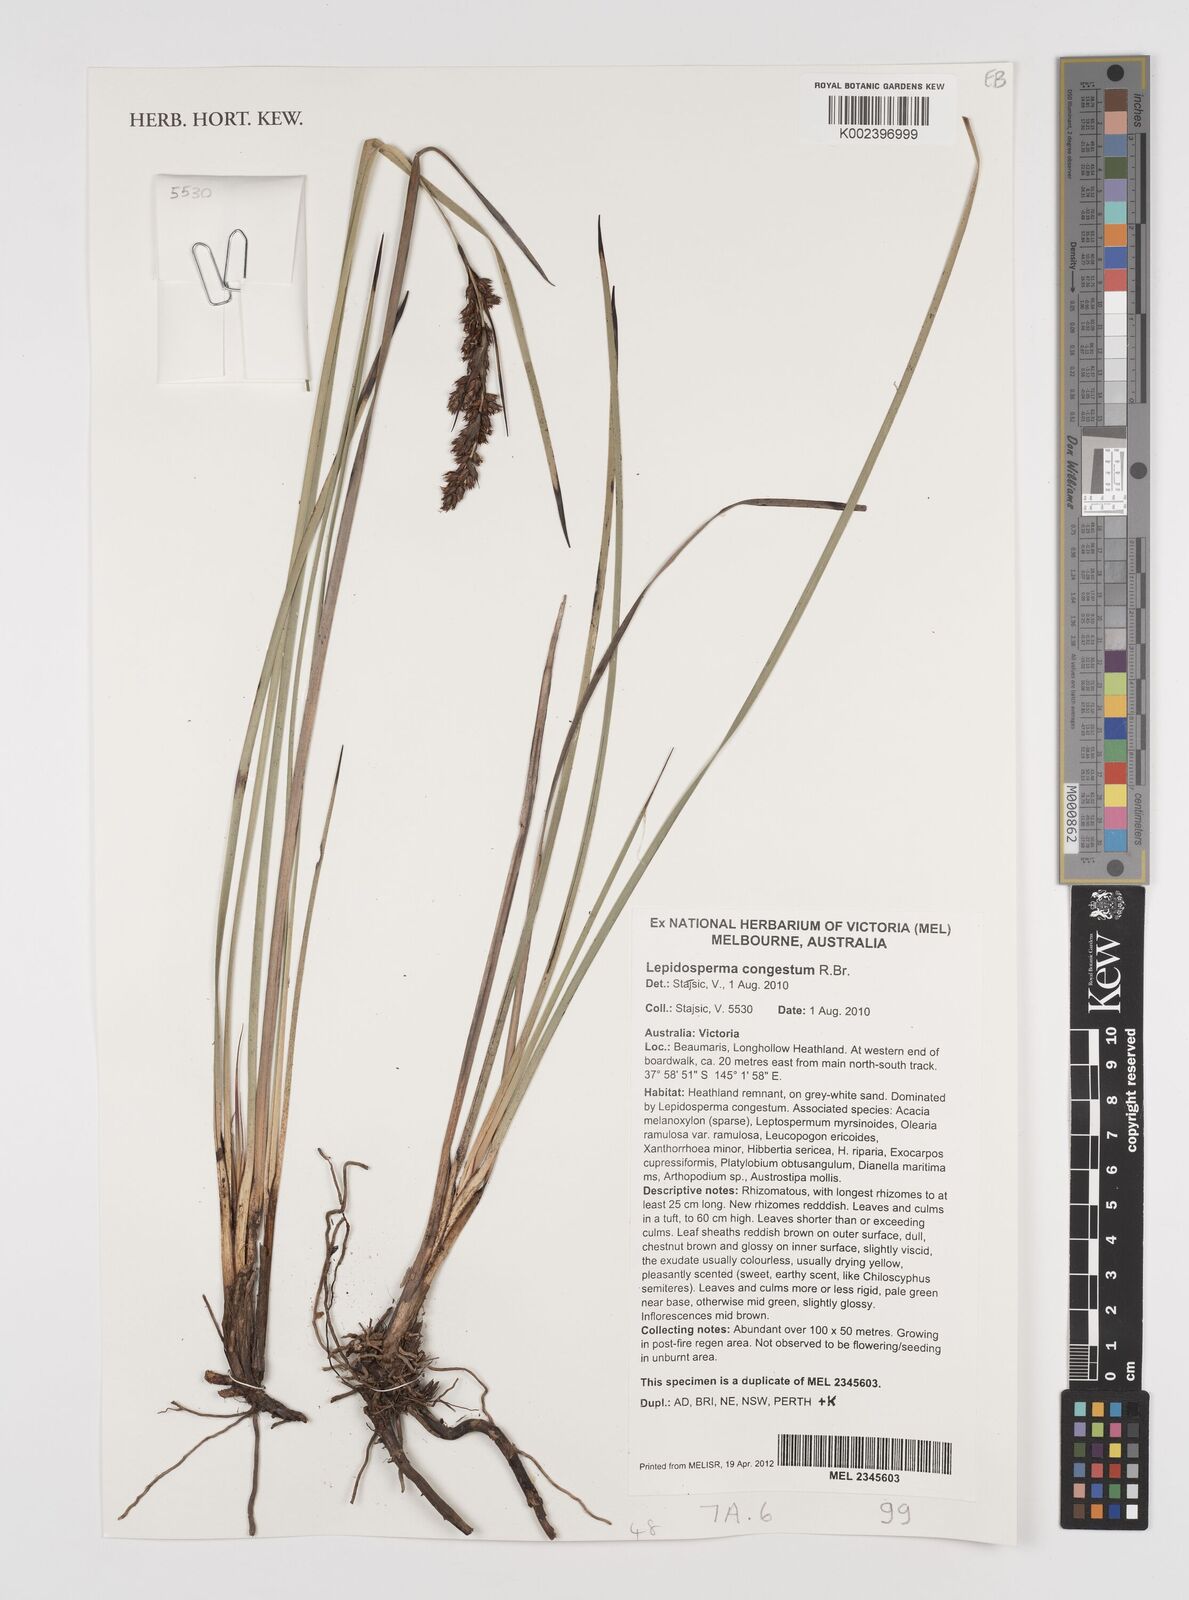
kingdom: Plantae
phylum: Tracheophyta
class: Liliopsida
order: Poales
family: Cyperaceae
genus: Lepidosperma
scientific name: Lepidosperma congestum
